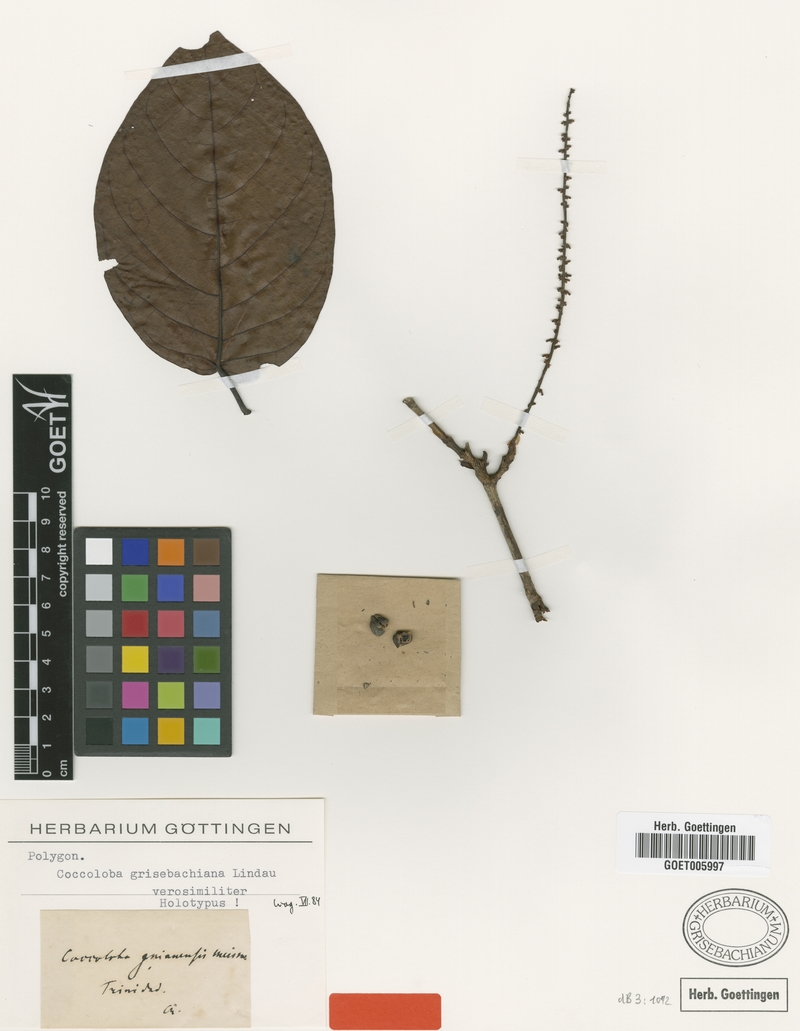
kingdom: Plantae
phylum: Tracheophyta
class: Magnoliopsida
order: Caryophyllales
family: Polygonaceae
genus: Coccoloba
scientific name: Coccoloba striata
